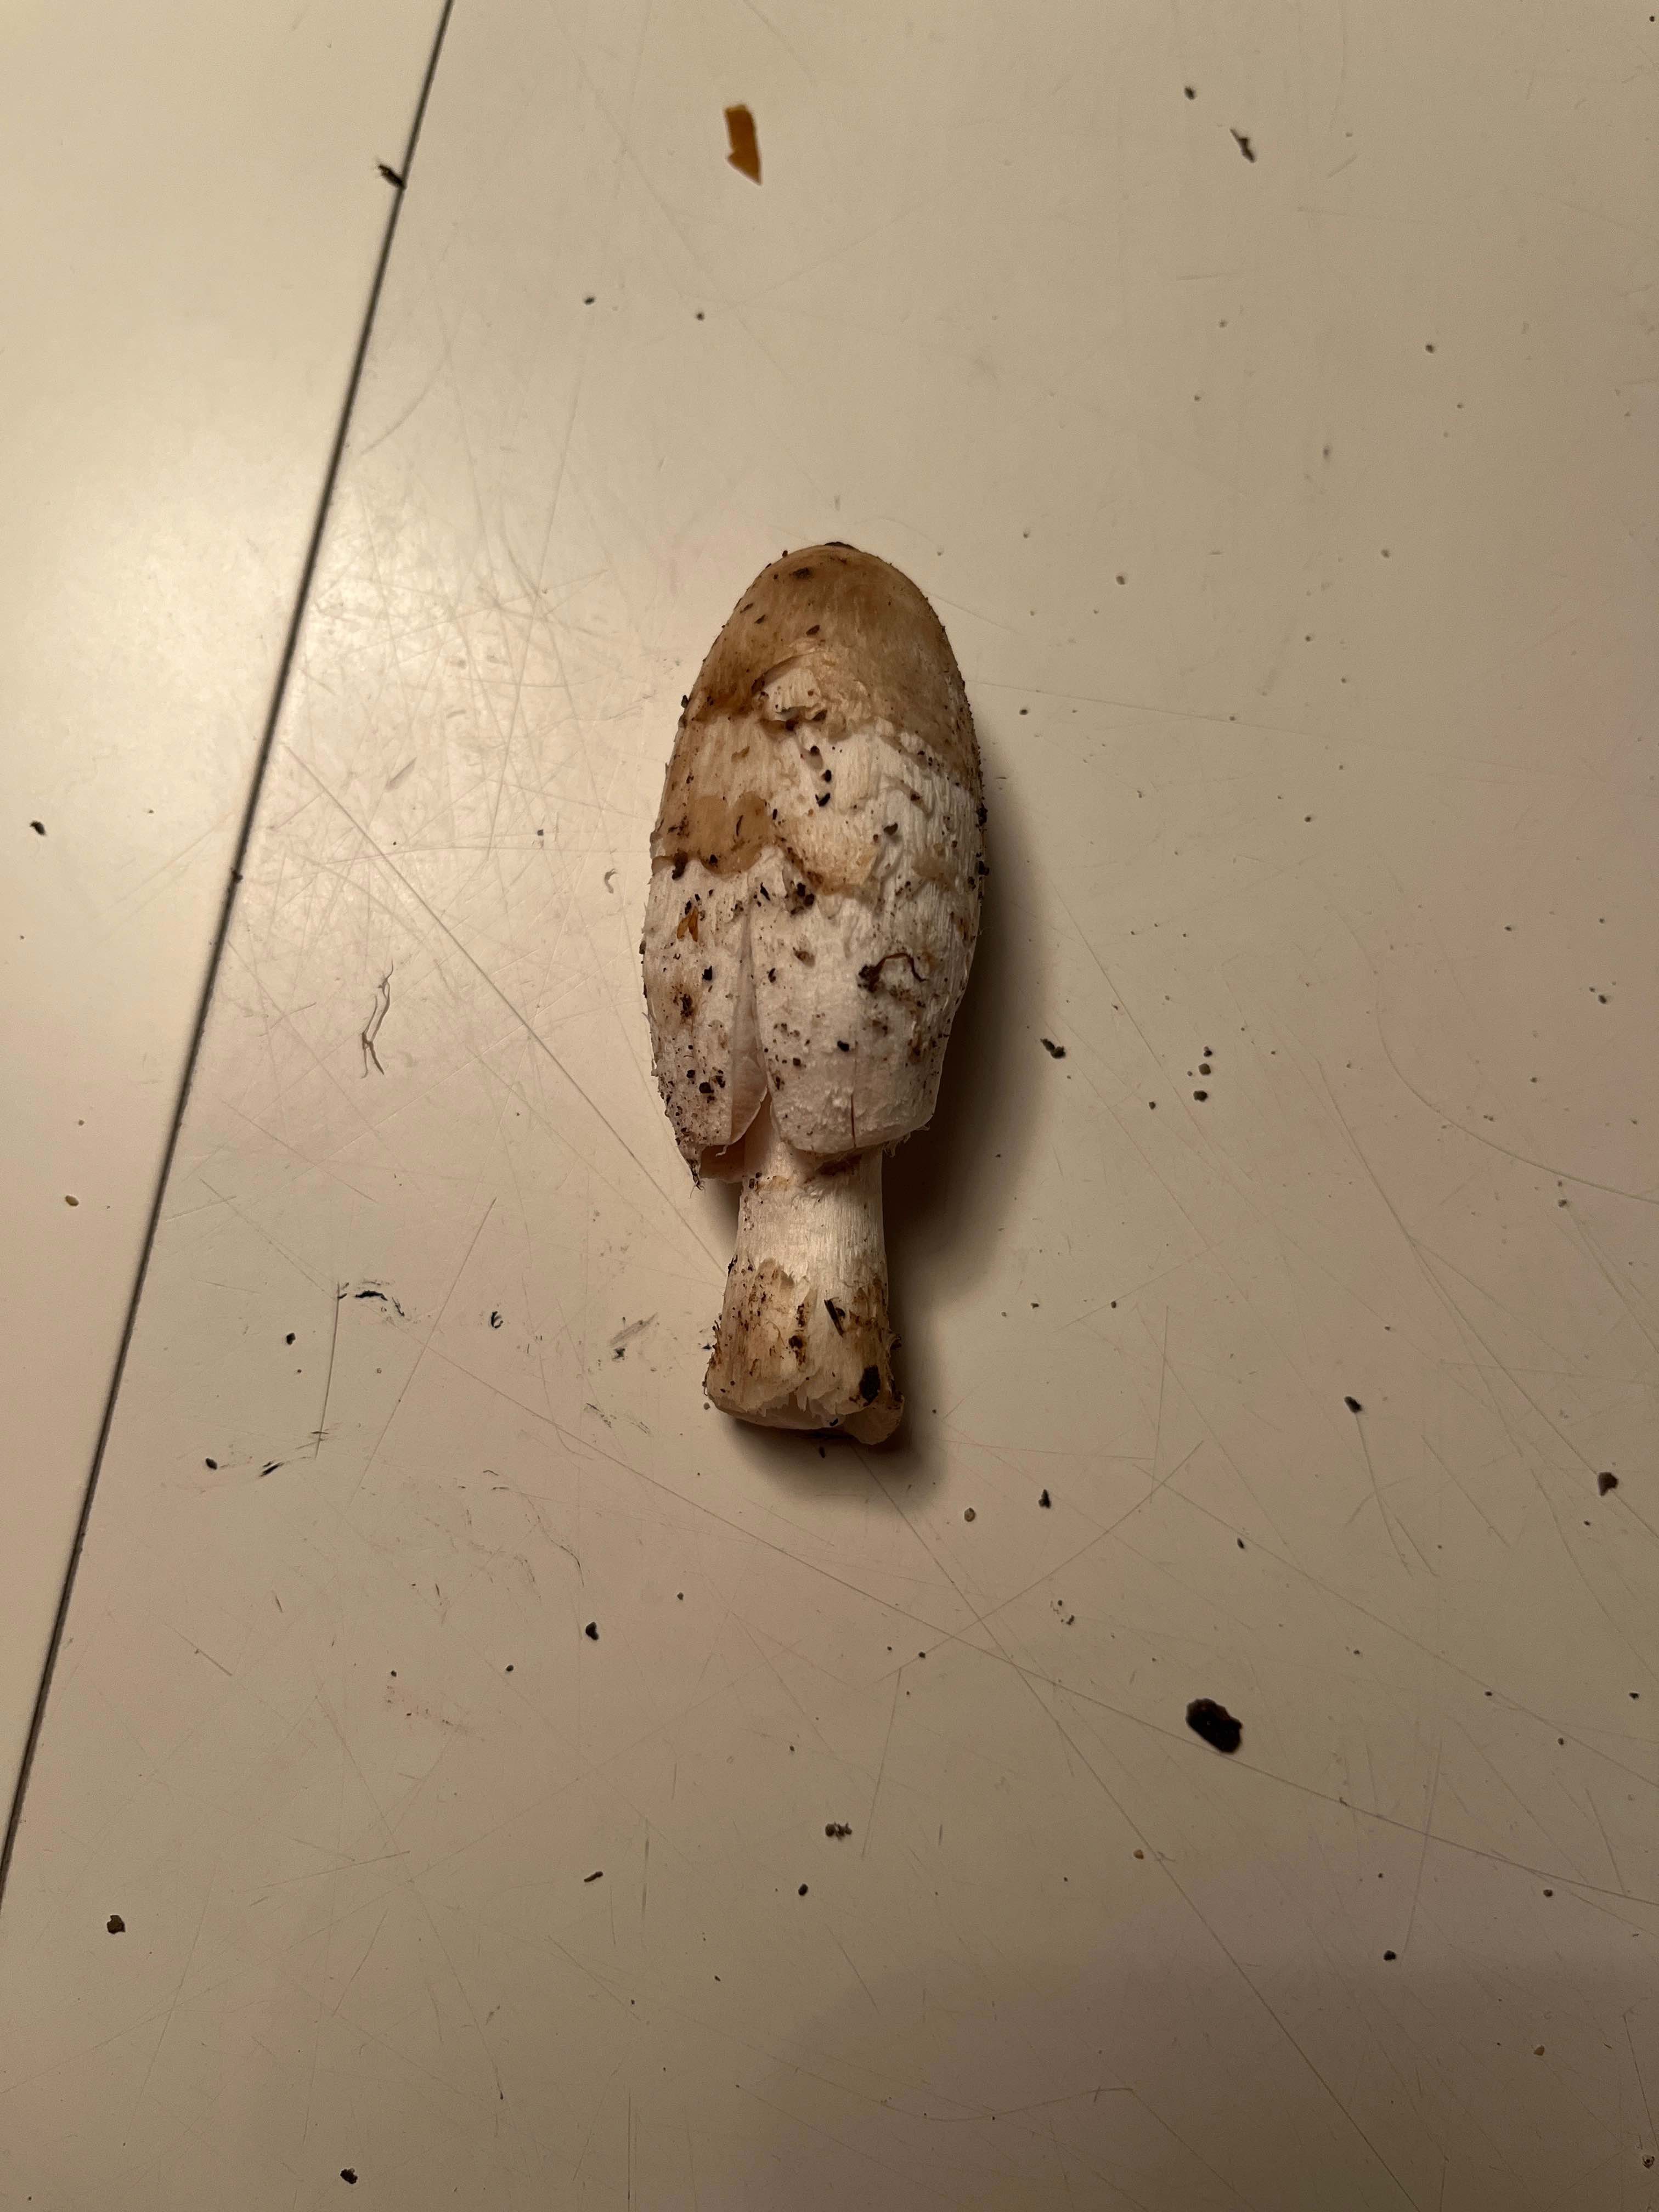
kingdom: Fungi
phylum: Basidiomycota
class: Agaricomycetes
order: Agaricales
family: Agaricaceae
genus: Coprinus
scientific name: Coprinus comatus
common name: stor parykhat
